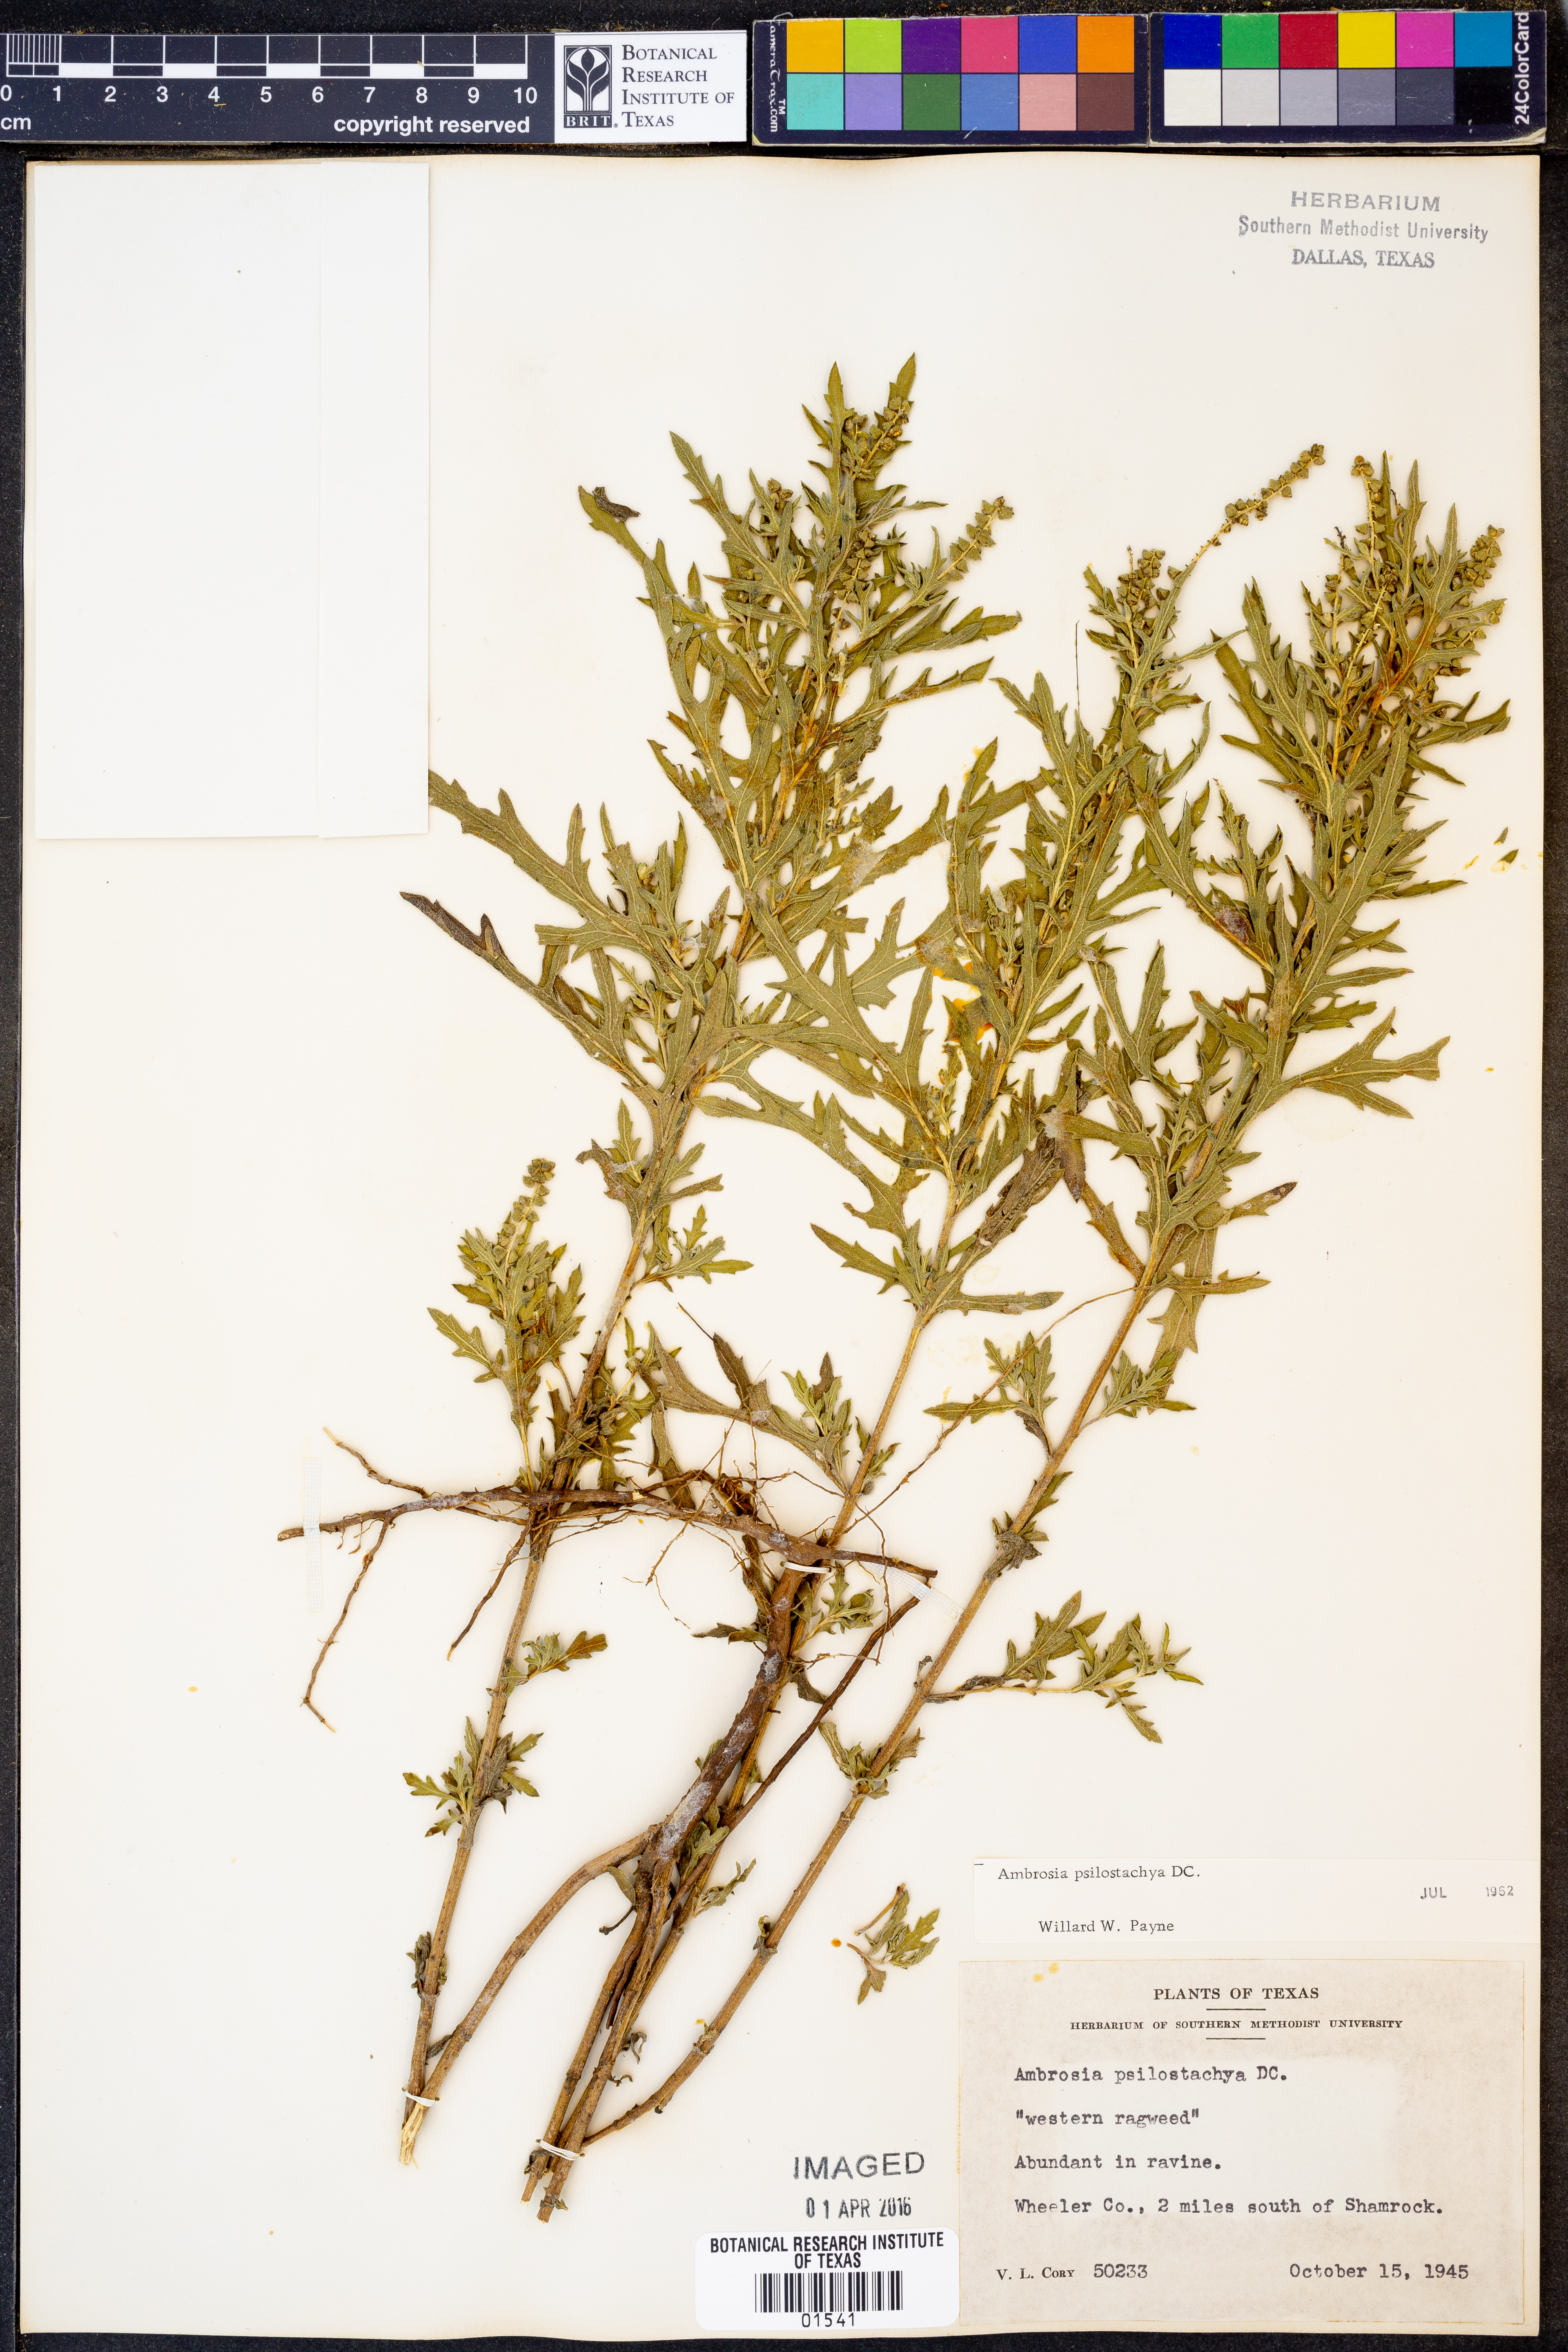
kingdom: Plantae
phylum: Tracheophyta
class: Magnoliopsida
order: Asterales
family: Asteraceae
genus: Ambrosia
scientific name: Ambrosia psilostachya
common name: Perennial ragweed
